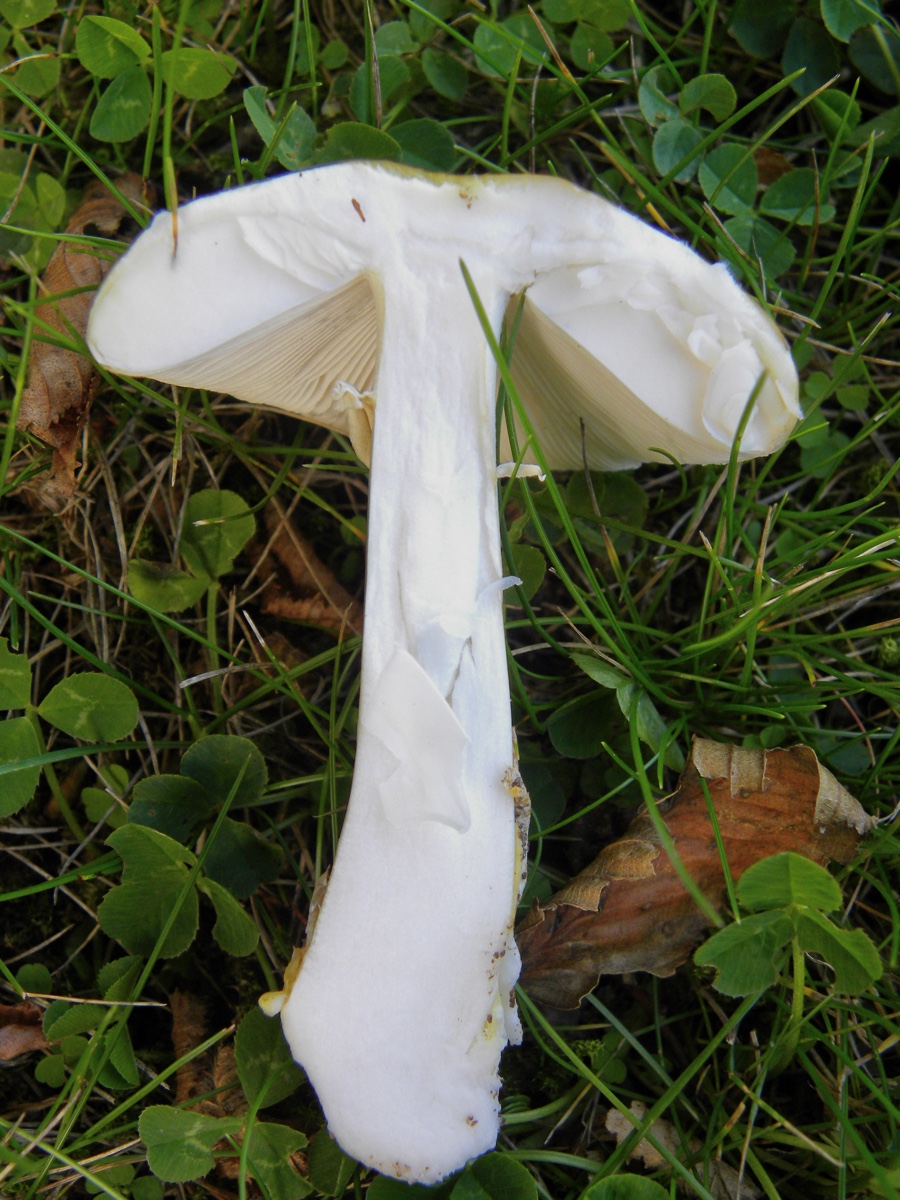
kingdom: Fungi
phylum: Basidiomycota
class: Agaricomycetes
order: Agaricales
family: Amanitaceae
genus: Amanita
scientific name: Amanita phalloides
